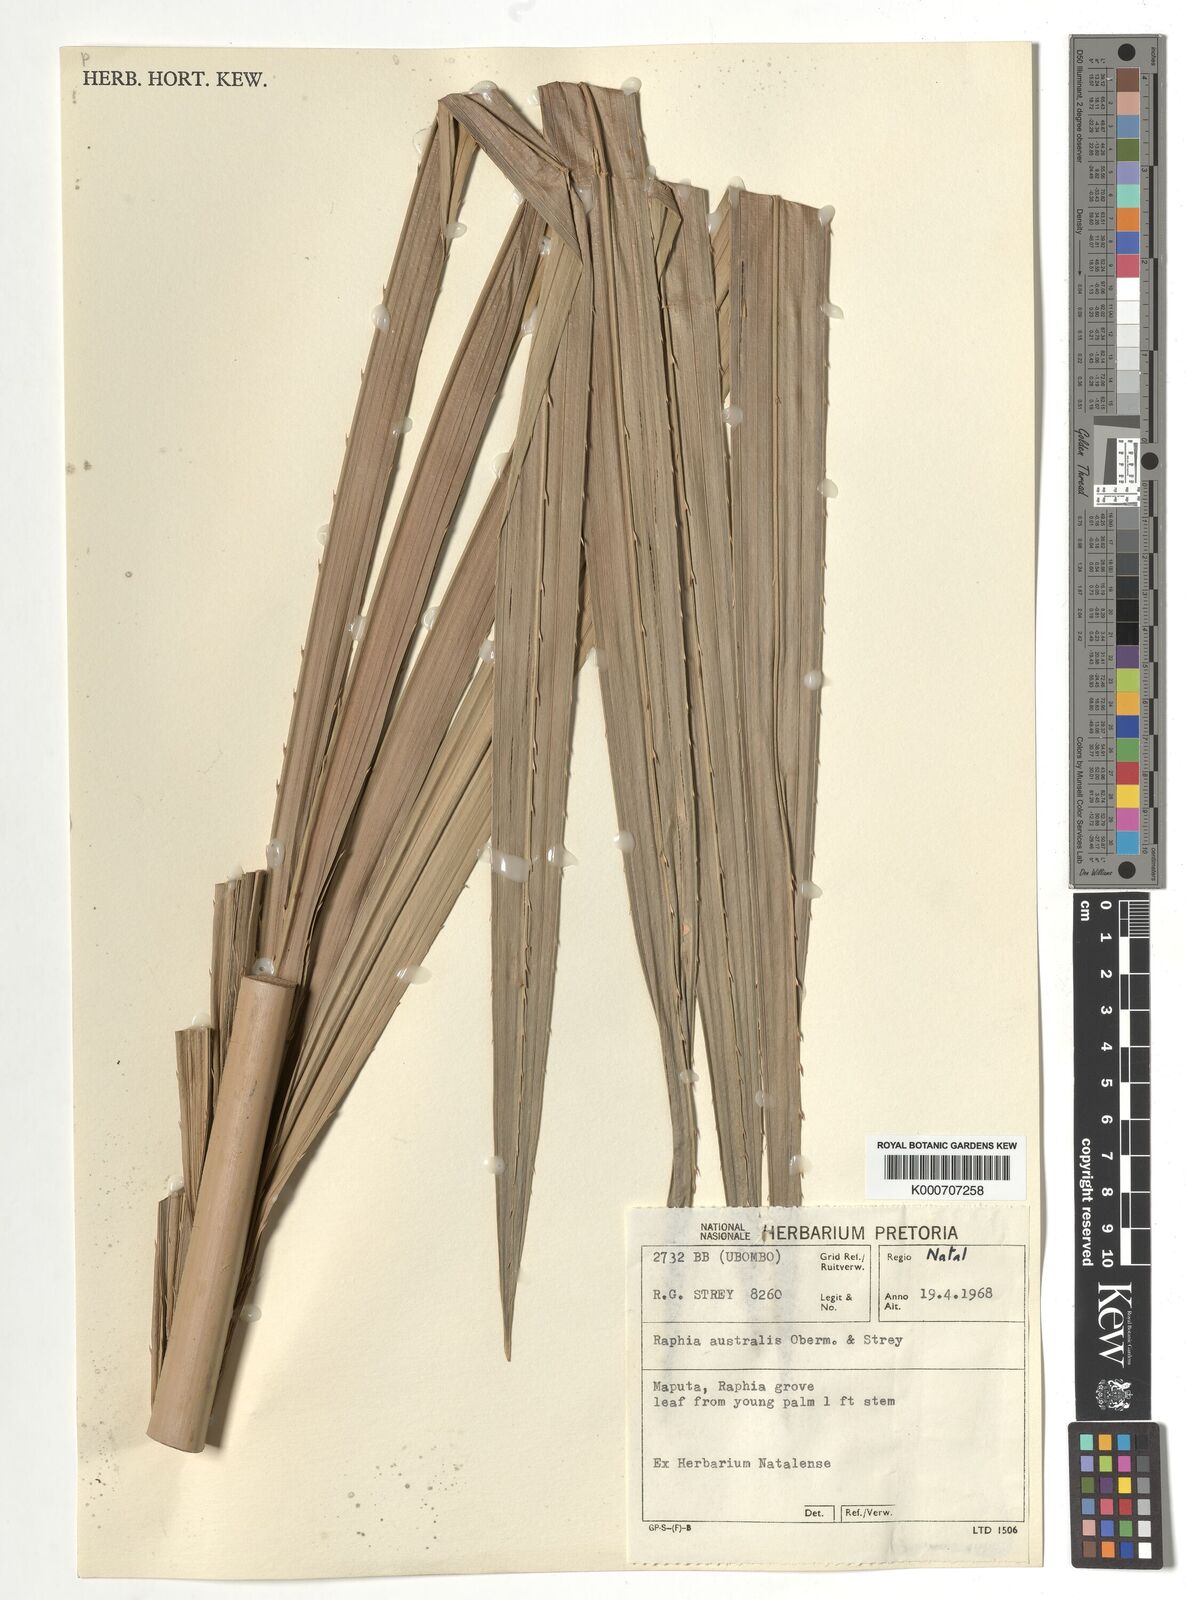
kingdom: Plantae
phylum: Tracheophyta
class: Liliopsida
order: Arecales
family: Arecaceae
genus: Raphia
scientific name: Raphia australis
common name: Giant palm
